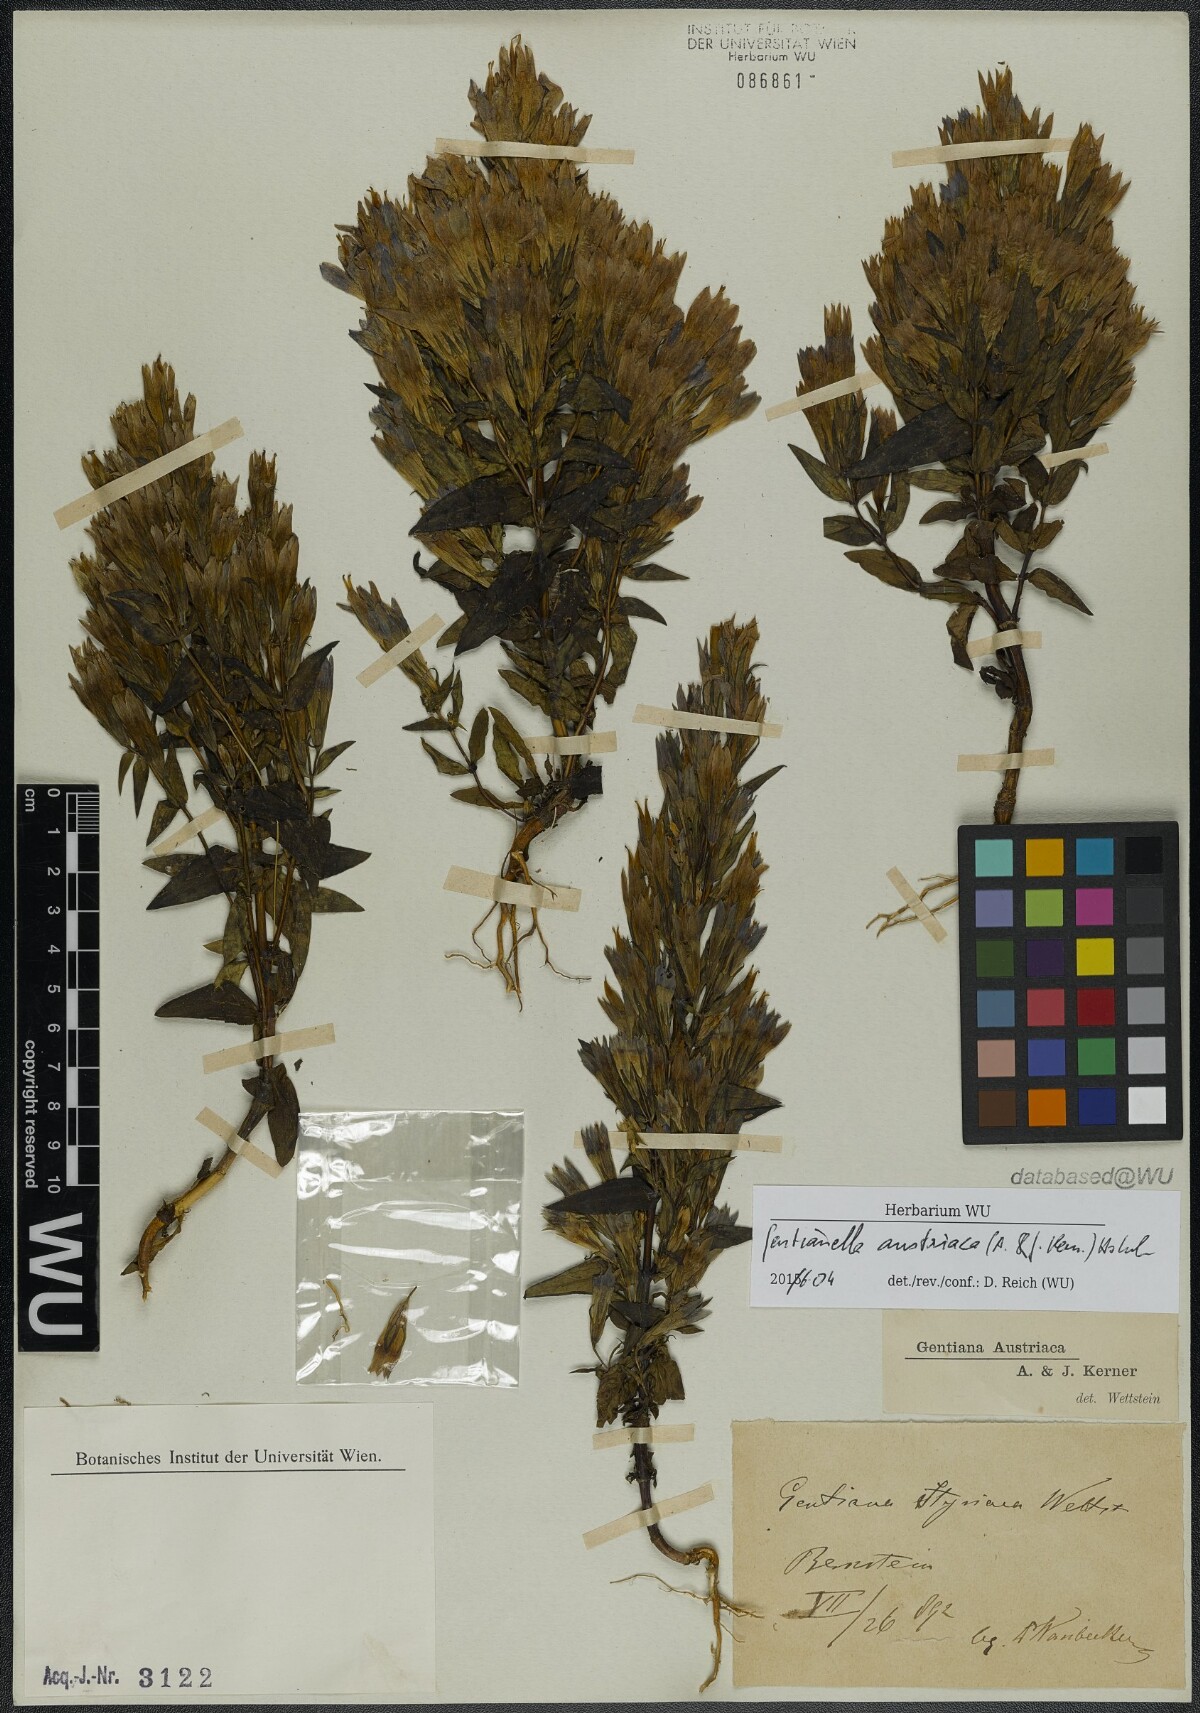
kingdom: Plantae
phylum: Tracheophyta
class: Magnoliopsida
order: Gentianales
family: Gentianaceae
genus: Gentianella
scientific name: Gentianella austriaca
